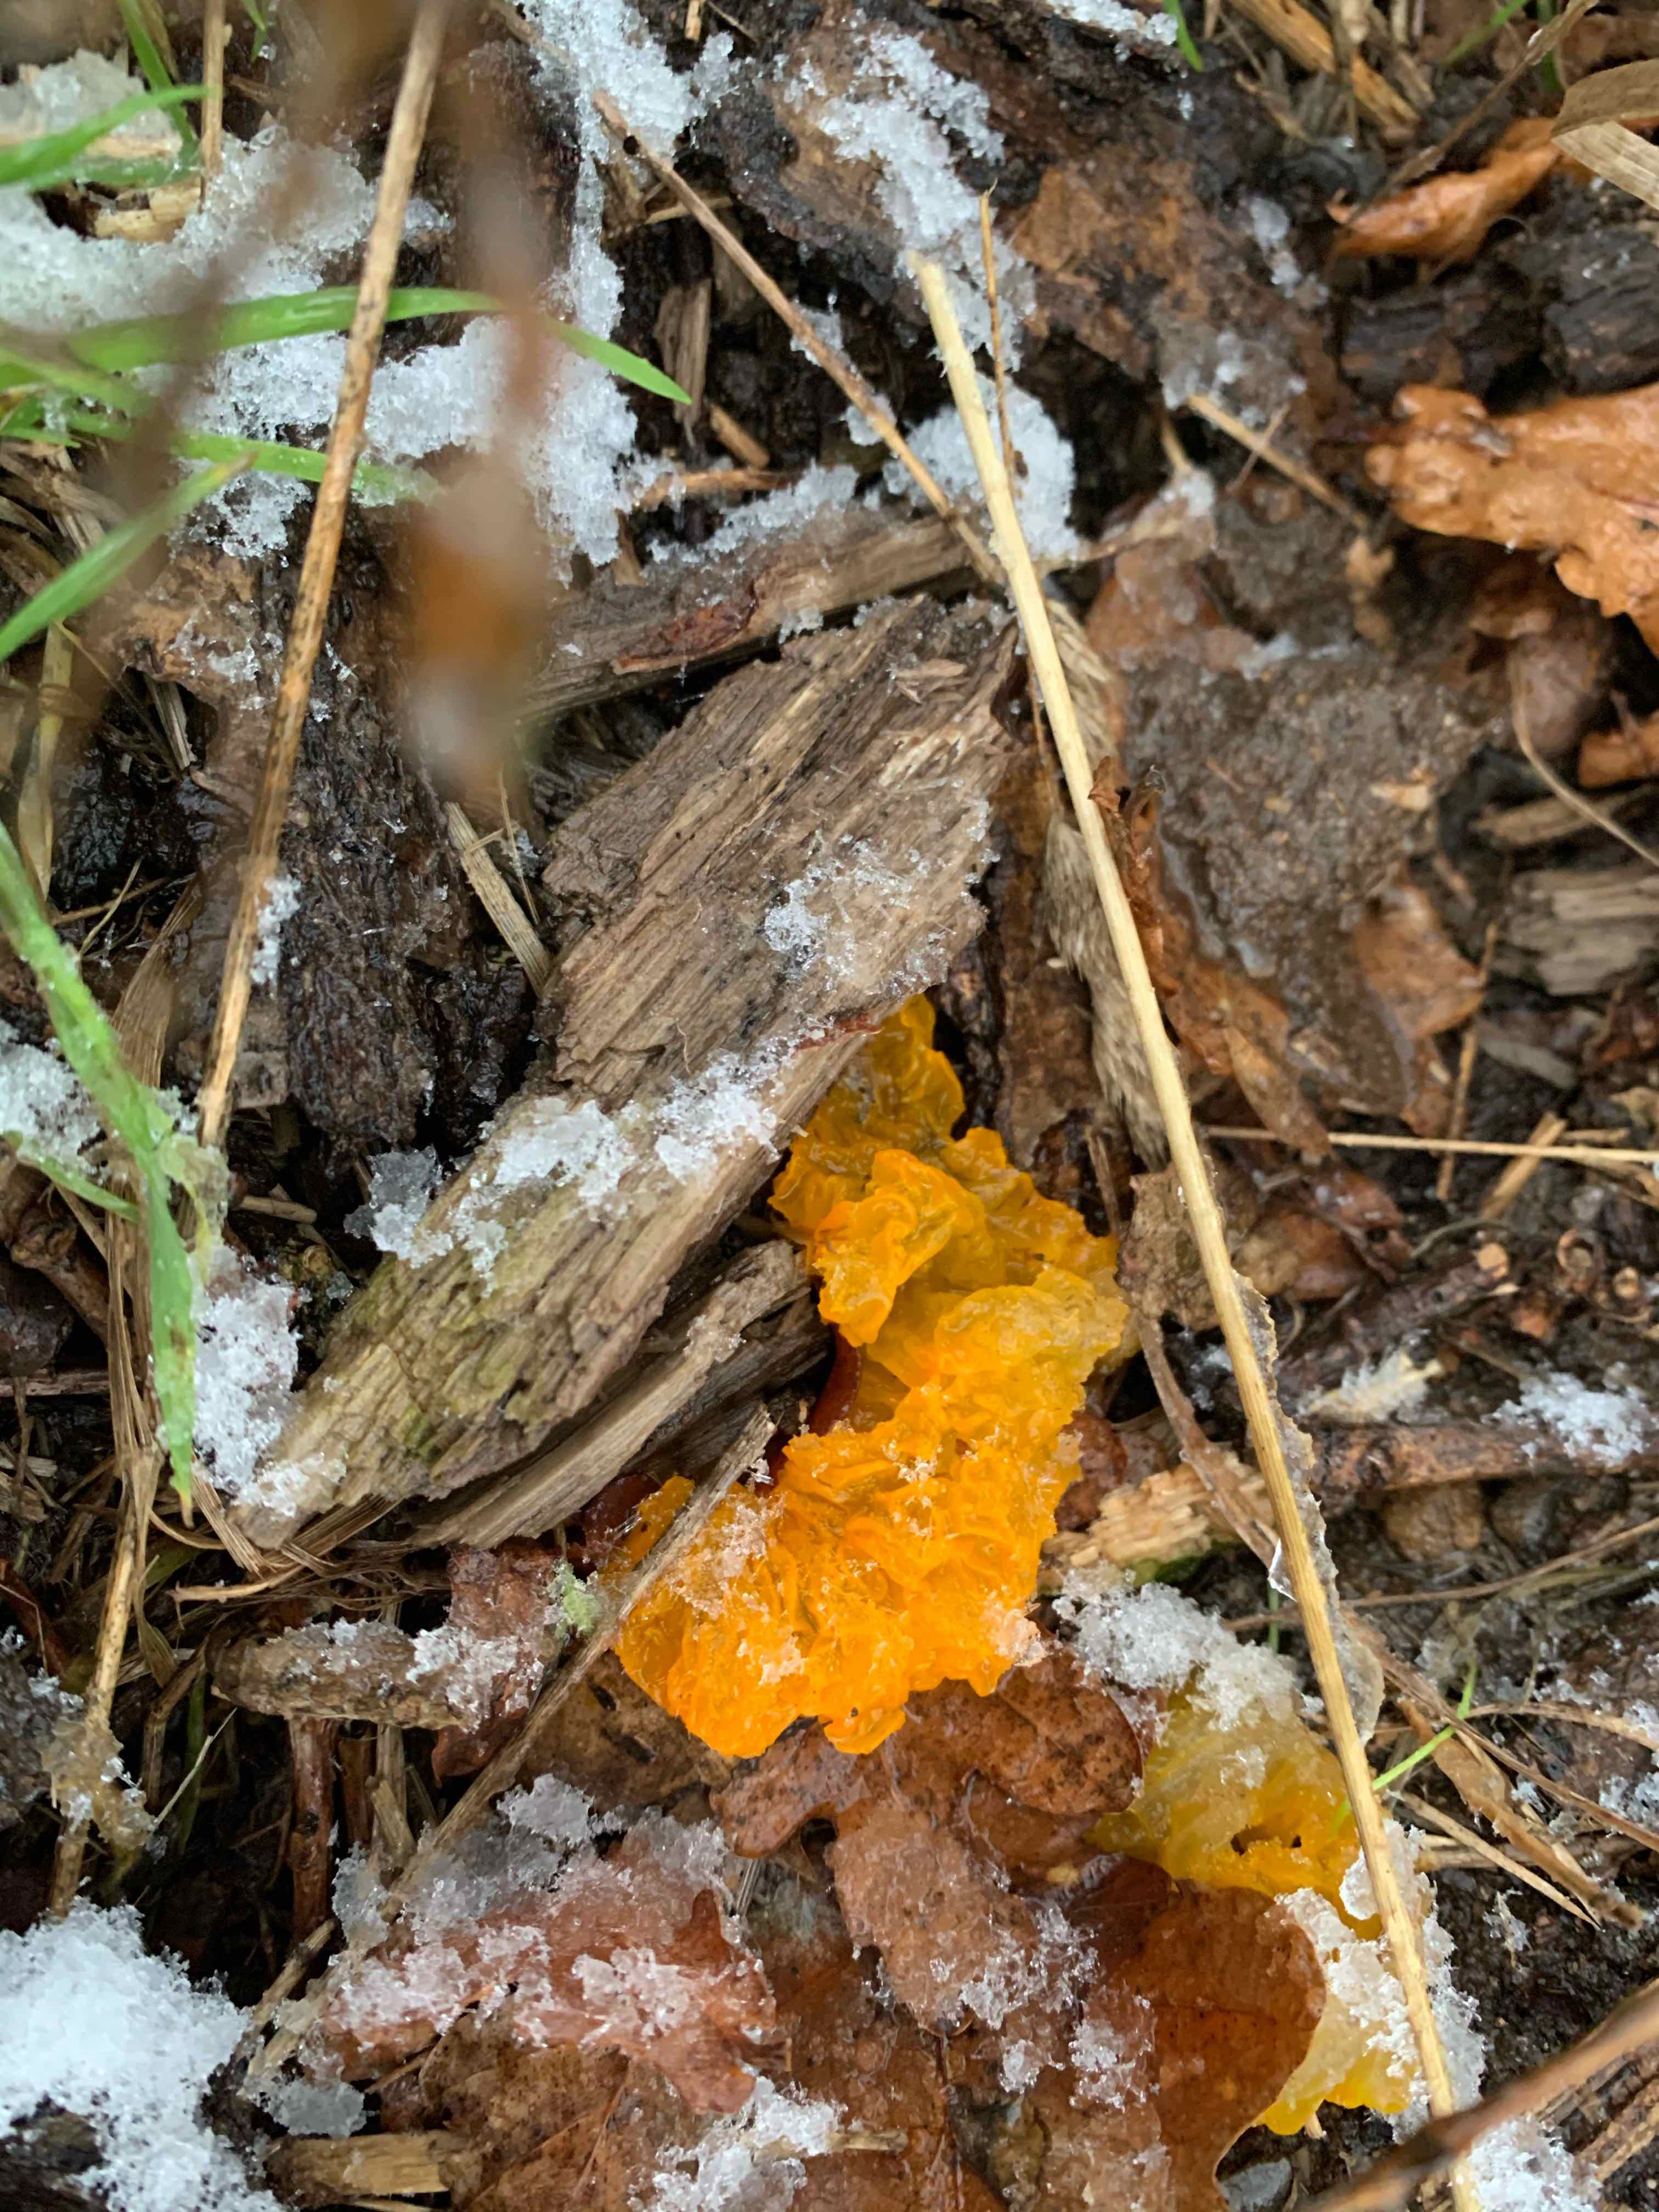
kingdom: Fungi
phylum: Basidiomycota
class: Tremellomycetes
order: Tremellales
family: Tremellaceae
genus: Tremella
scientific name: Tremella mesenterica
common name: gul bævresvamp
